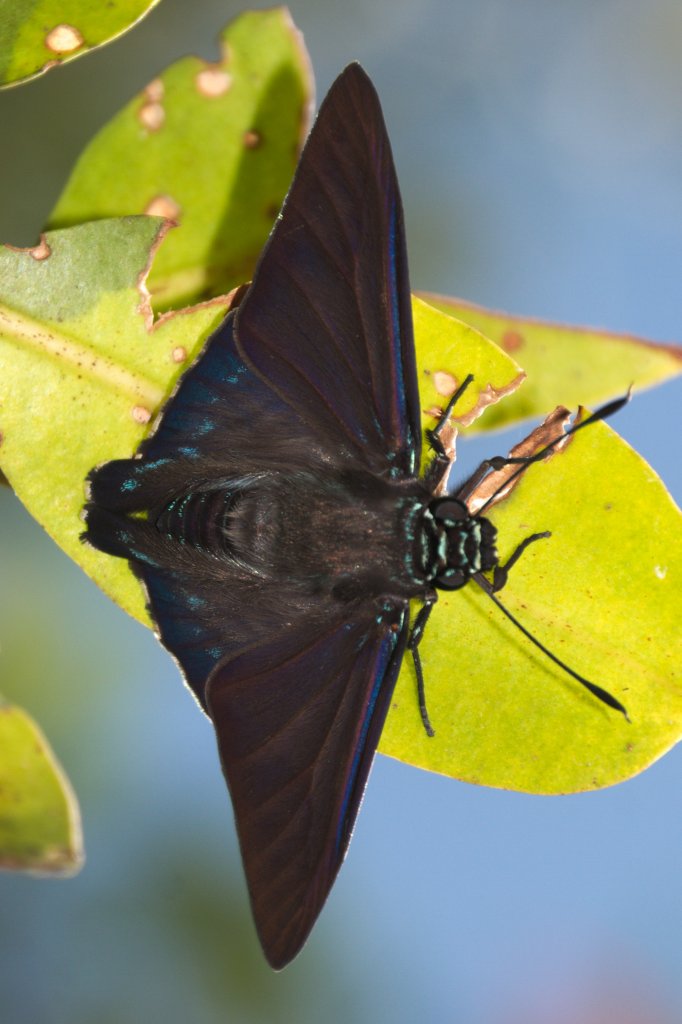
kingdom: Animalia
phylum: Arthropoda
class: Insecta
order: Lepidoptera
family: Hesperiidae
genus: Phocides
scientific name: Phocides pigmalion
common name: Mangrove Skipper
